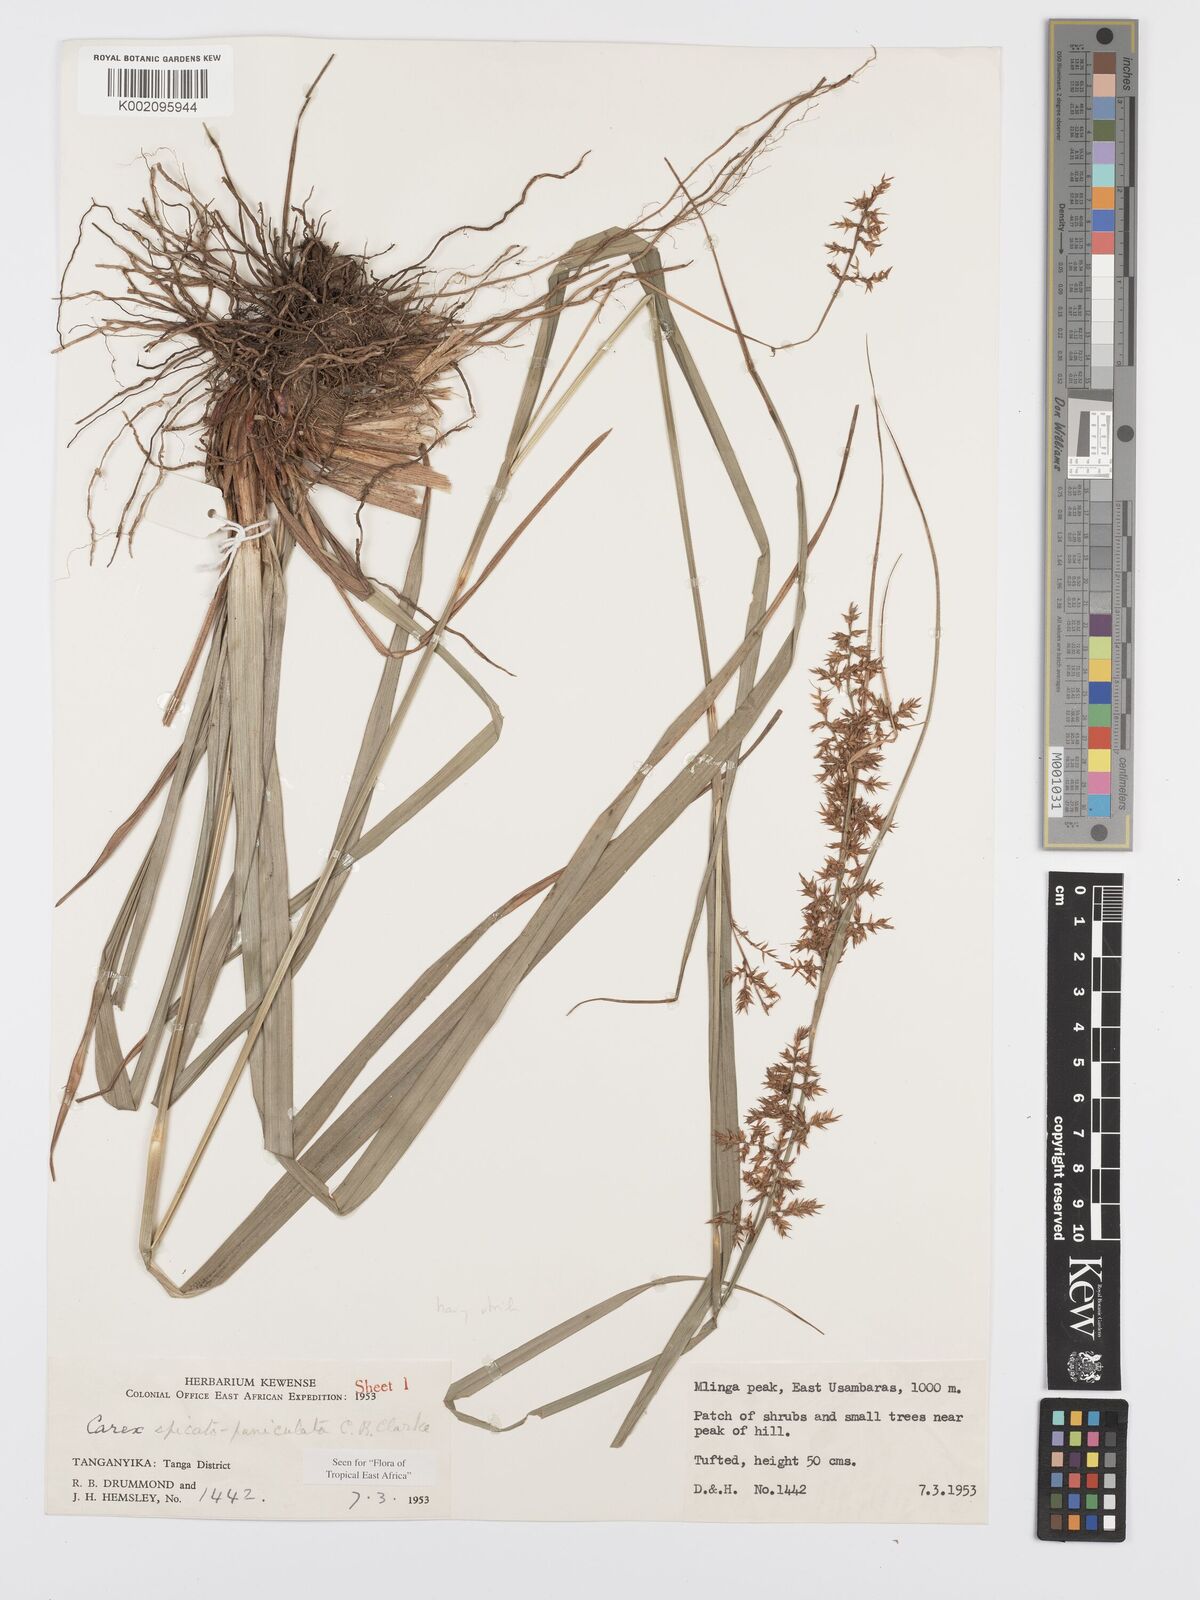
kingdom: Plantae
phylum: Tracheophyta
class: Liliopsida
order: Poales
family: Cyperaceae
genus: Carex
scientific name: Carex spicatopaniculata
